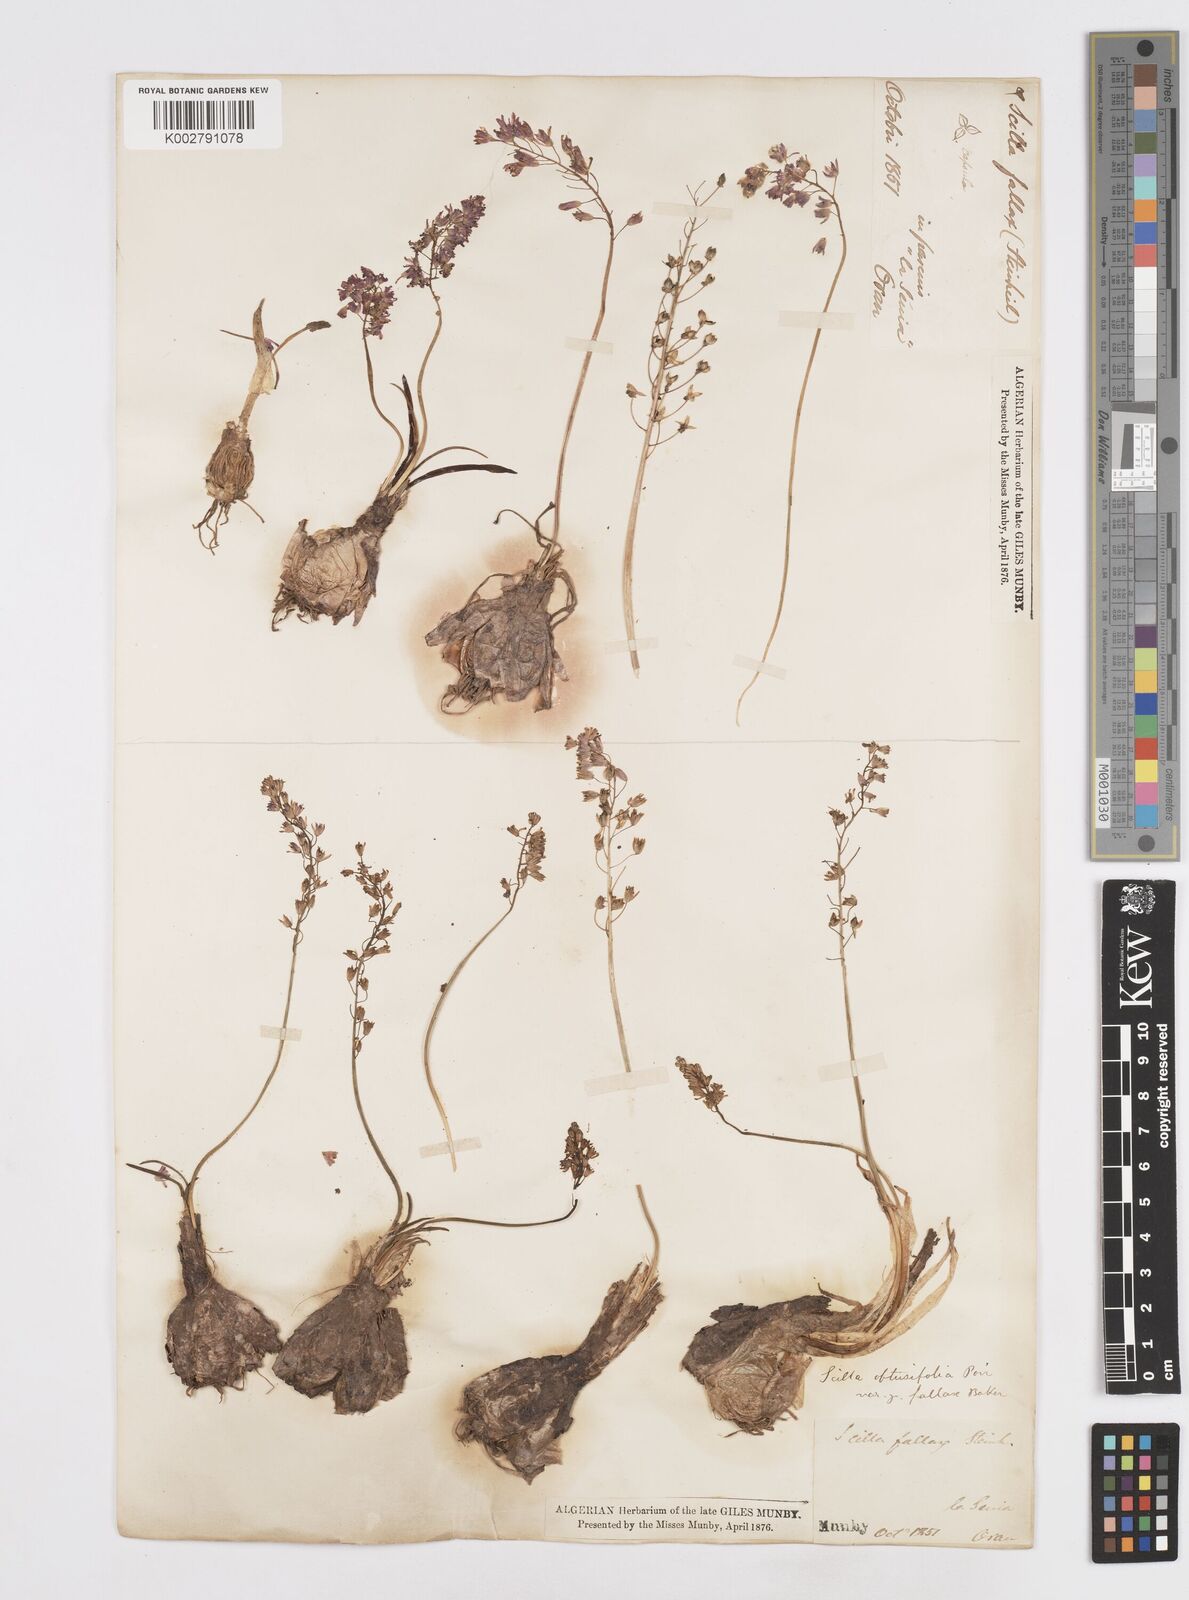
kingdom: Plantae
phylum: Tracheophyta
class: Liliopsida
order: Asparagales
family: Asparagaceae
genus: Prospero
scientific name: Prospero fallax
